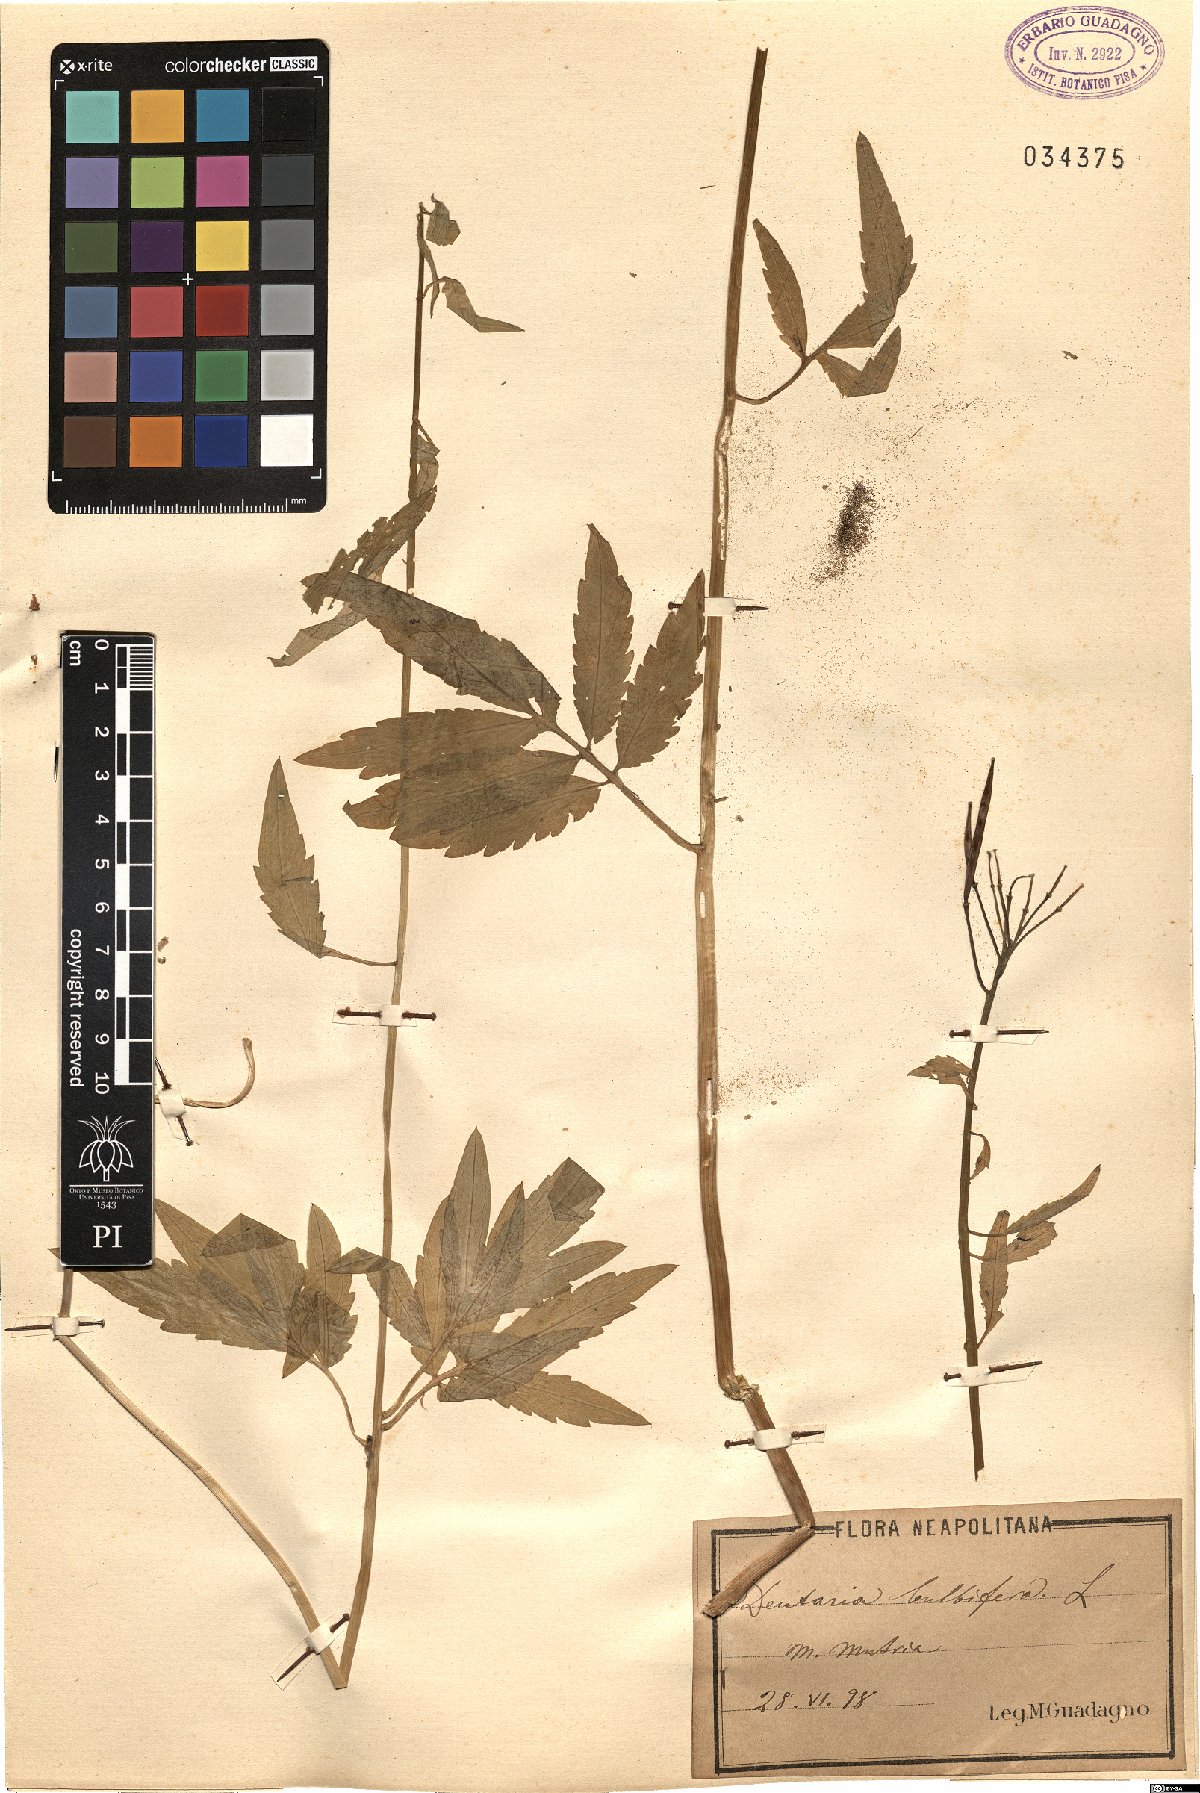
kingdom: Plantae
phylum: Tracheophyta
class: Magnoliopsida
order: Brassicales
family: Brassicaceae
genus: Cardamine
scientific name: Cardamine bulbifera
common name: Coralroot bittercress
